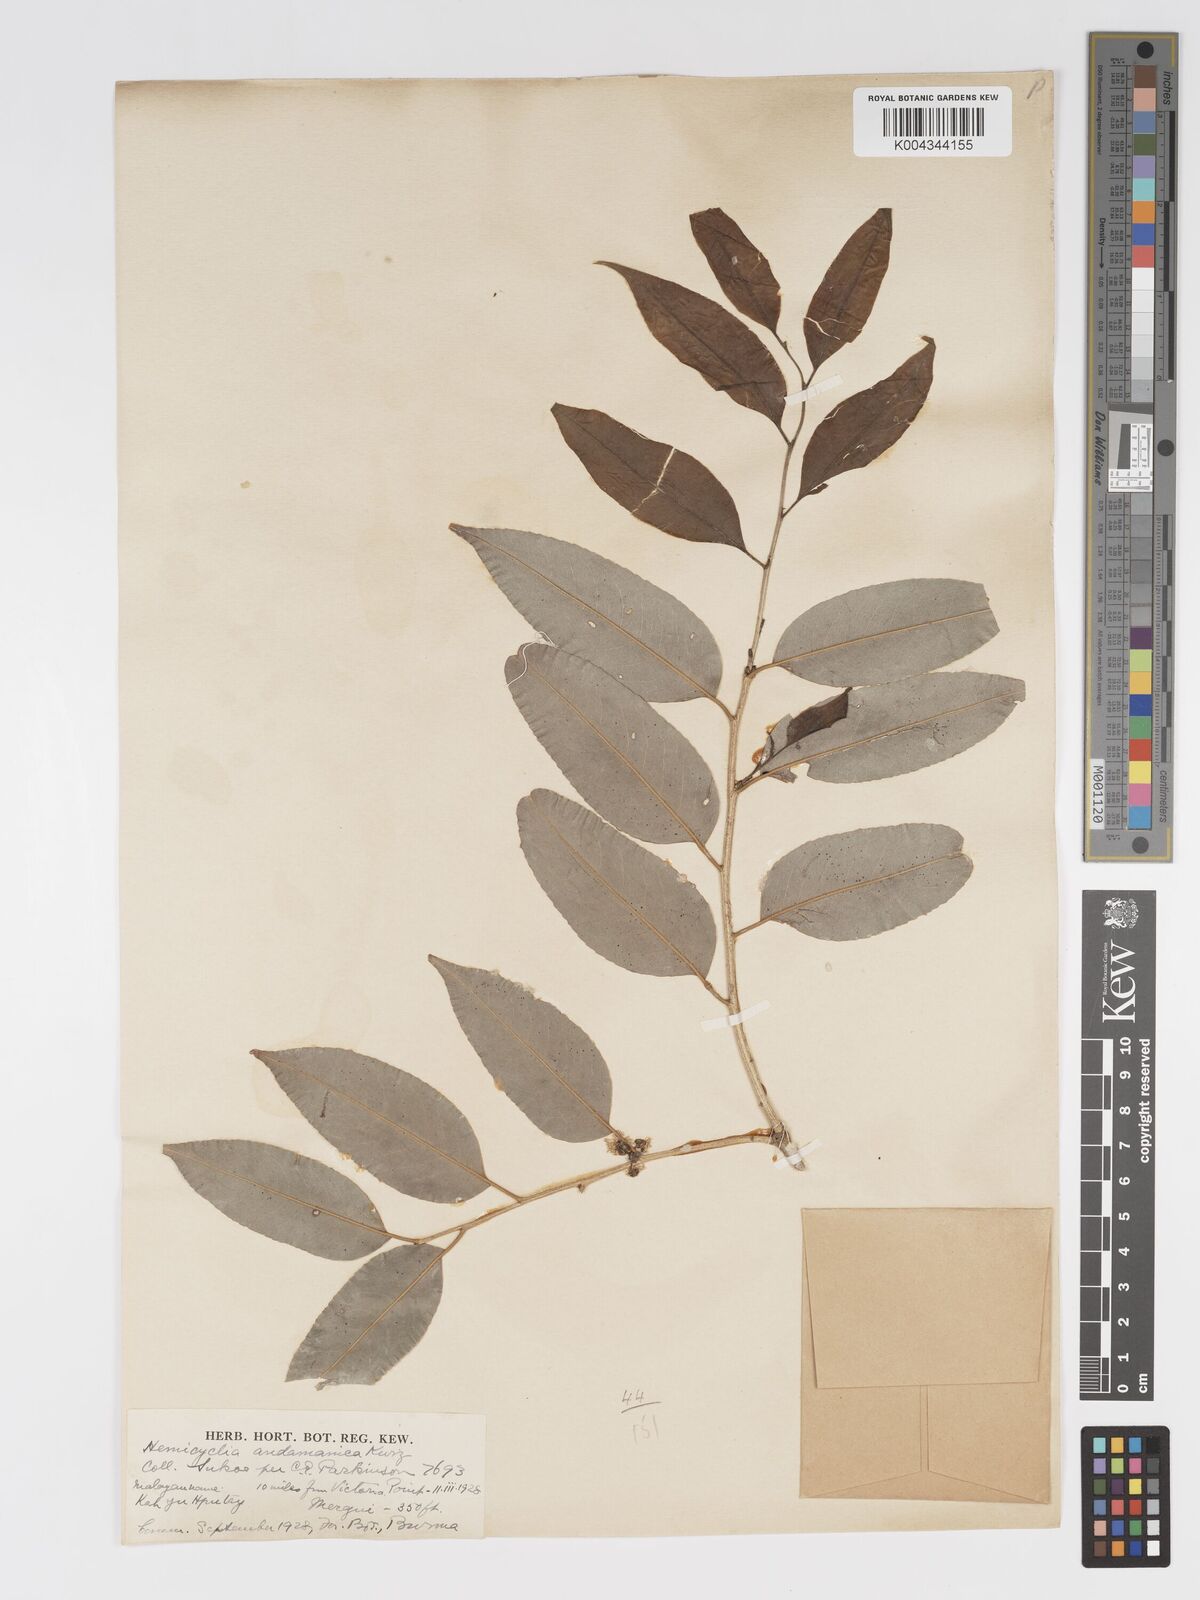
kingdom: Plantae
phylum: Tracheophyta
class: Magnoliopsida
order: Malpighiales
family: Putranjivaceae
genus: Drypetes
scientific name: Drypetes andamanica
